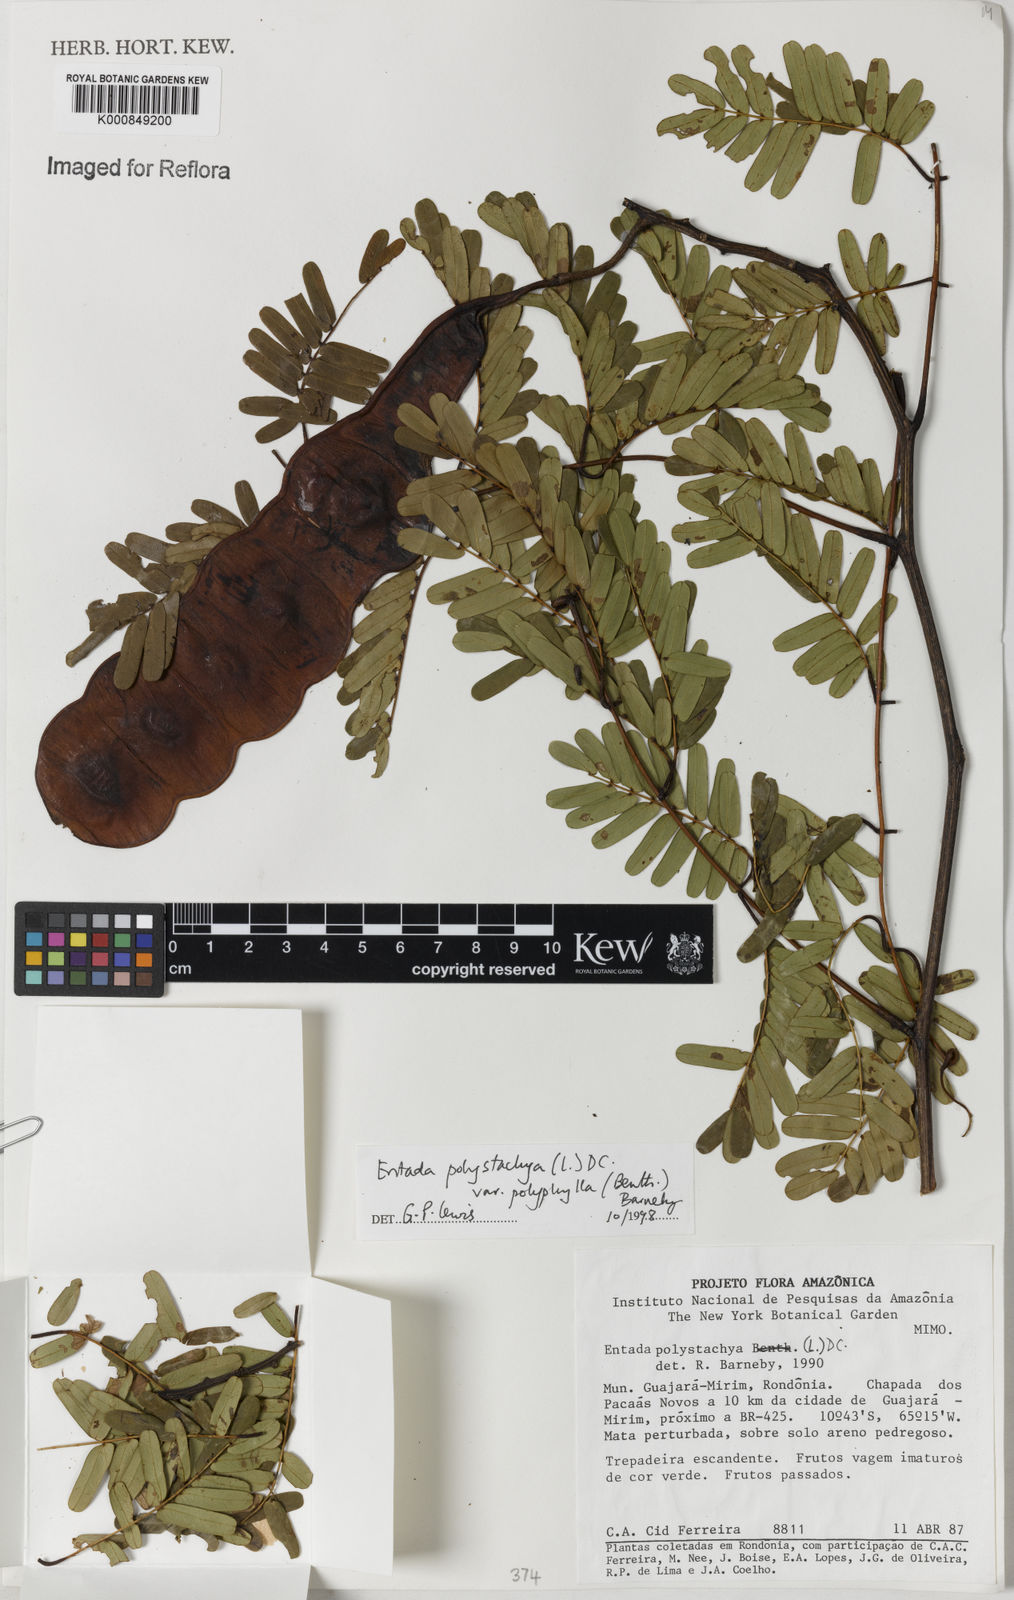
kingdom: Plantae
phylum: Tracheophyta
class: Magnoliopsida
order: Fabales
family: Fabaceae
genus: Entada
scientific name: Entada polyphylla
